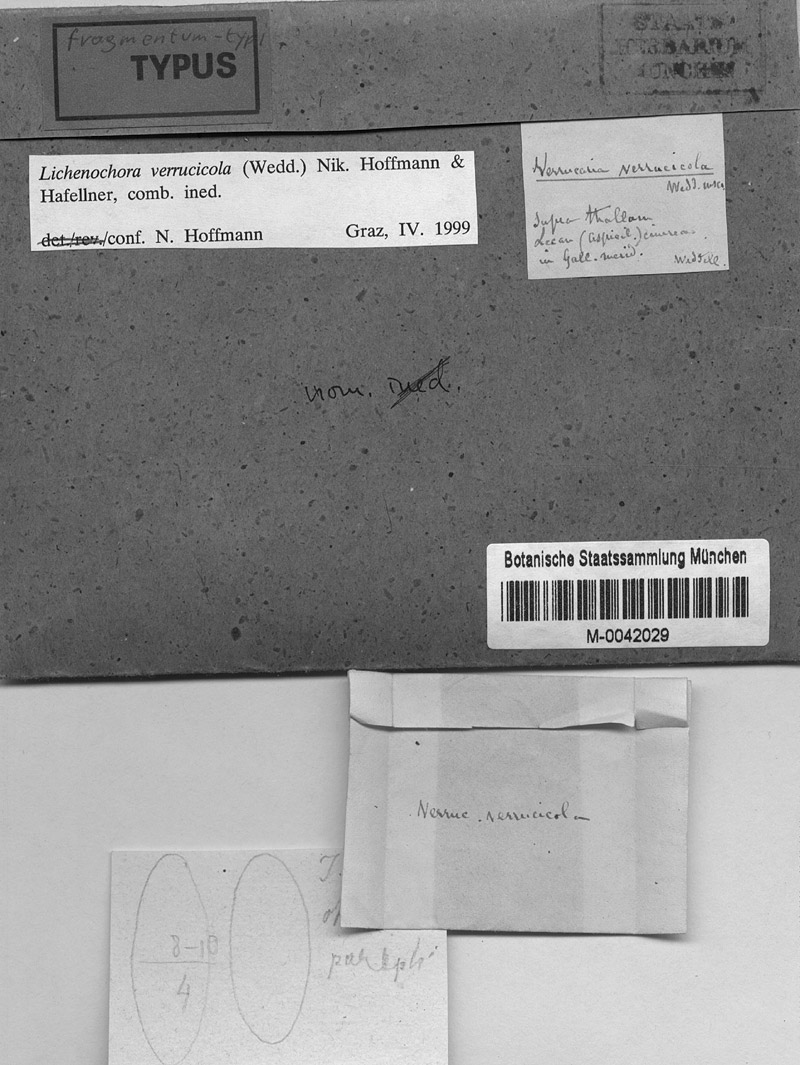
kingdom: Fungi
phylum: Ascomycota
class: Sordariomycetes
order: Phyllachorales
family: Phyllachoraceae
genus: Lichenochora
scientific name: Lichenochora verrucicola
